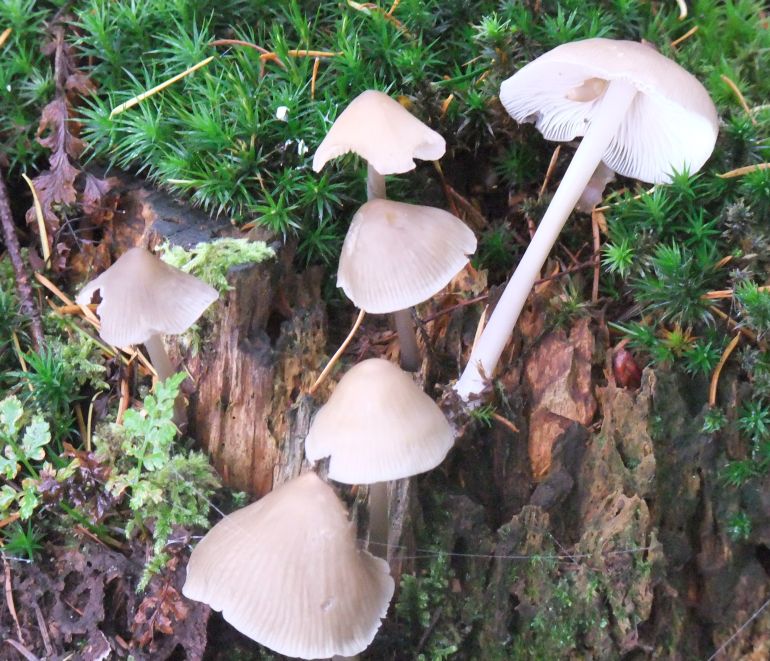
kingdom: Fungi
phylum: Basidiomycota
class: Agaricomycetes
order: Agaricales
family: Mycenaceae
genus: Mycena
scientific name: Mycena galericulata
